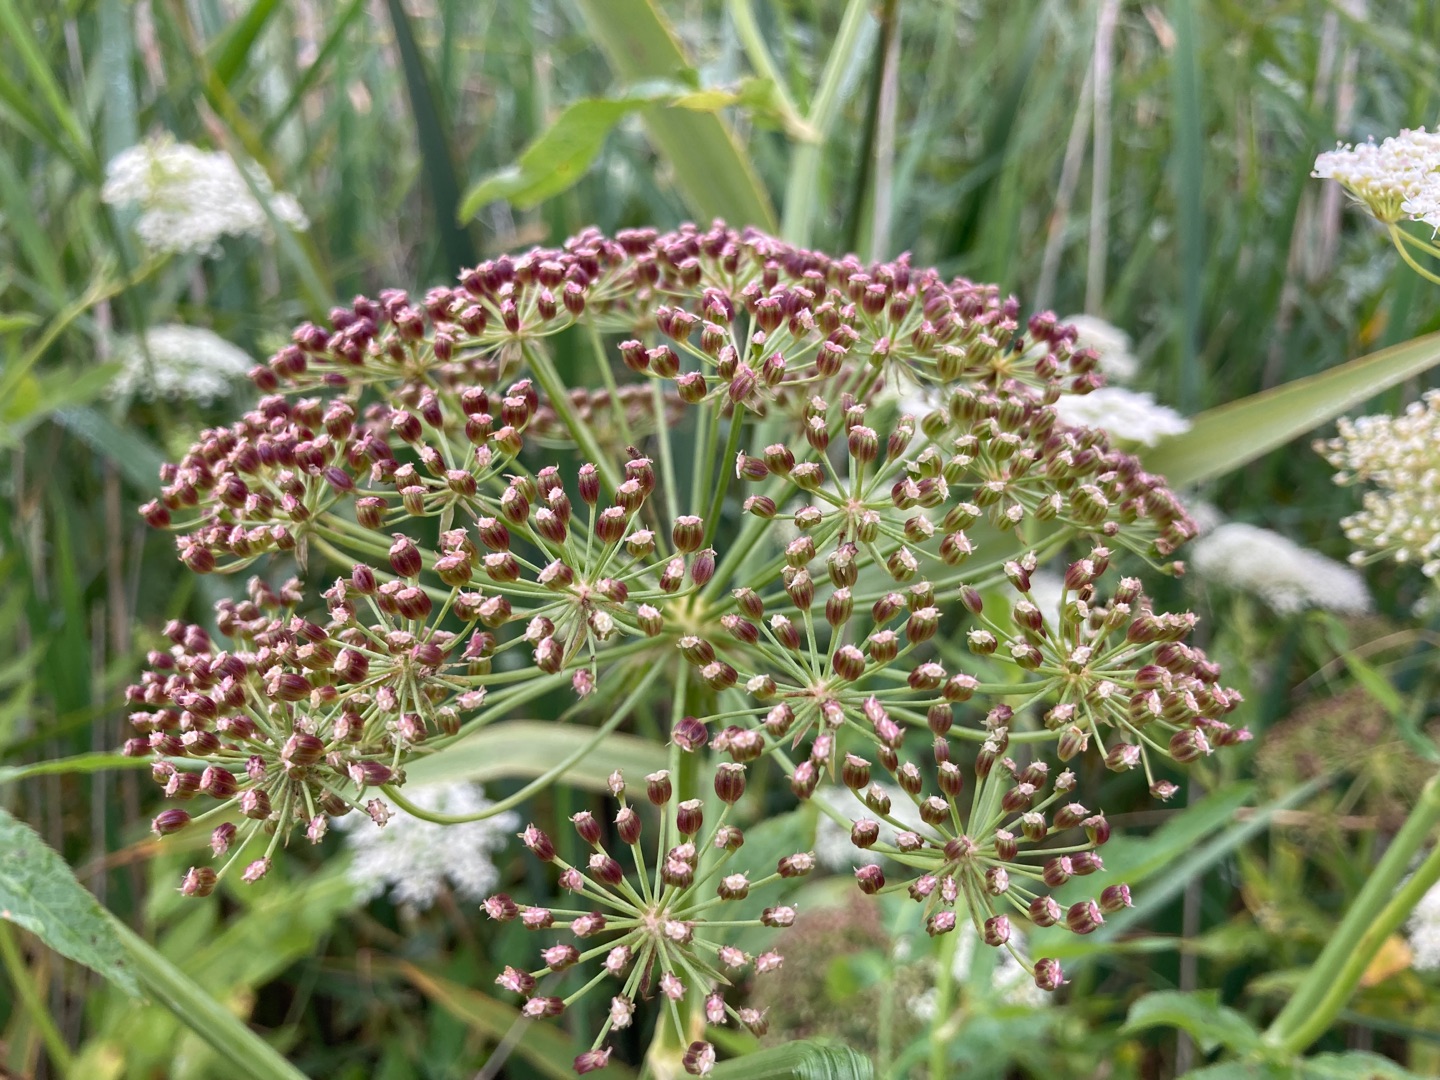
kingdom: Plantae
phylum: Tracheophyta
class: Magnoliopsida
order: Apiales
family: Apiaceae
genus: Sium
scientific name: Sium latifolium
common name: Bredbladet mærke
